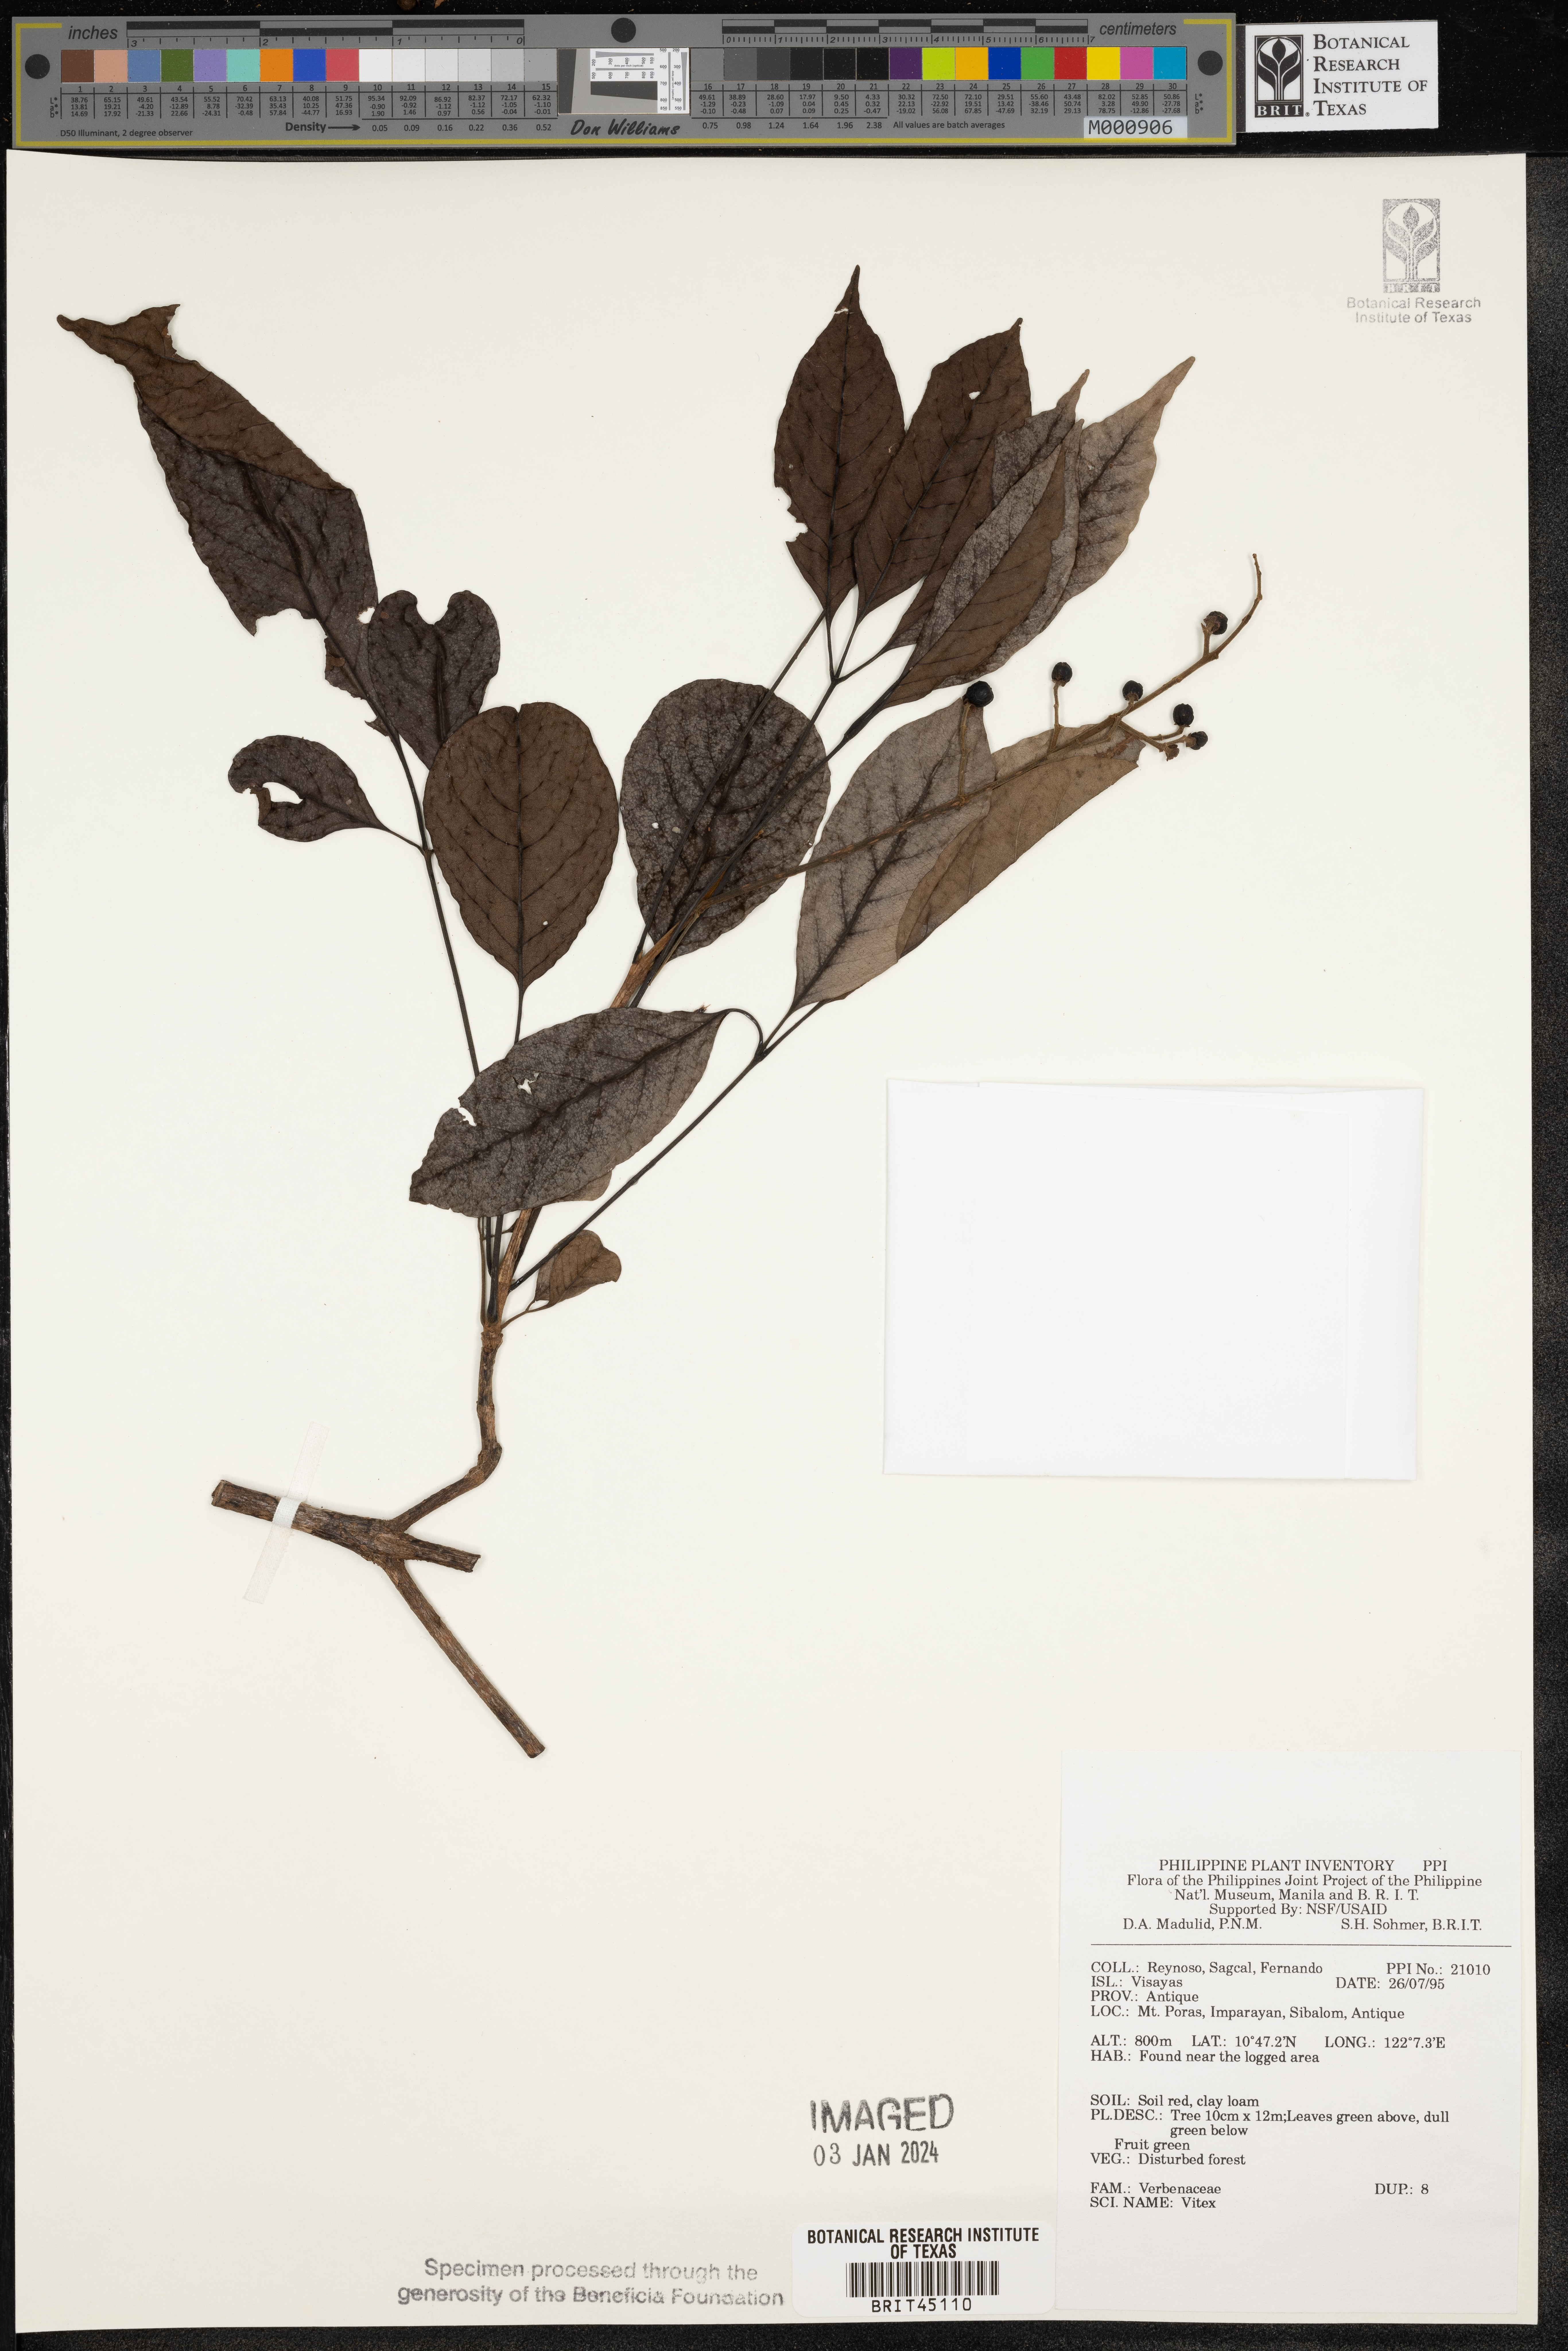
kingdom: Plantae
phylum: Tracheophyta
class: Magnoliopsida
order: Lamiales
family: Lamiaceae
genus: Vitex
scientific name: Vitex
